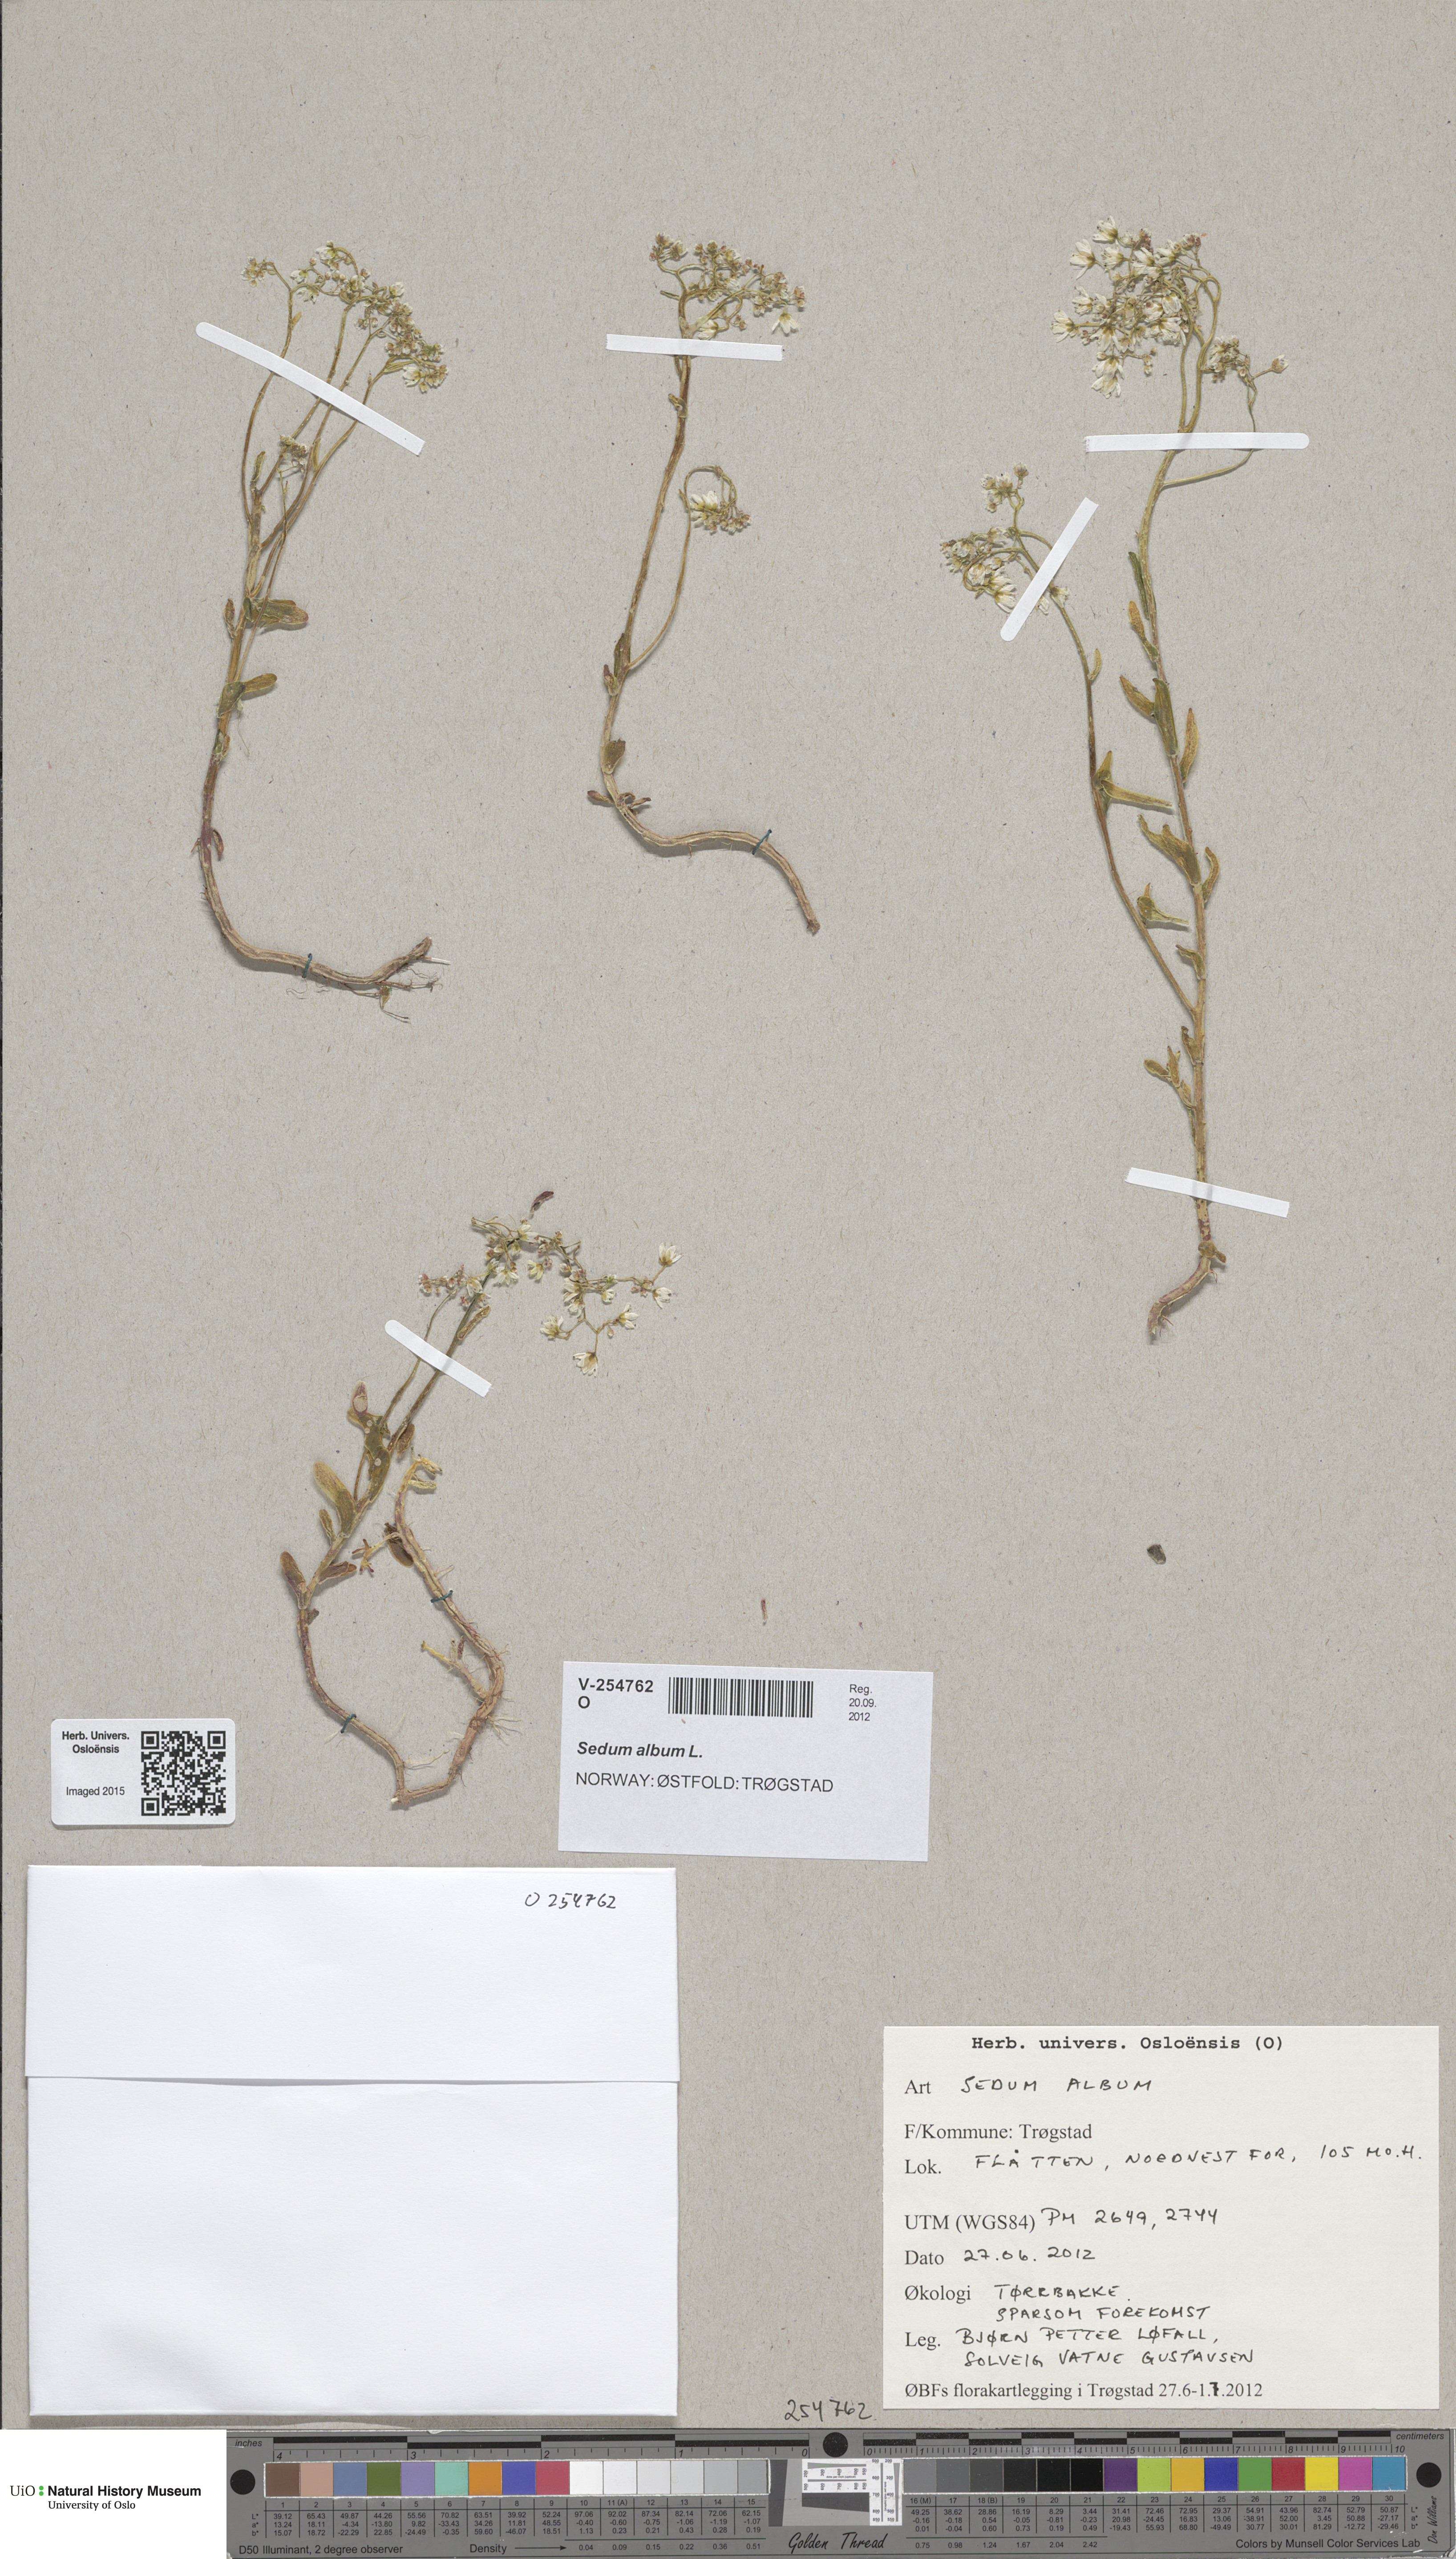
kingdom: Plantae
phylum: Tracheophyta
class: Magnoliopsida
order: Saxifragales
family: Crassulaceae
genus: Sedum
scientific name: Sedum album
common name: White stonecrop
